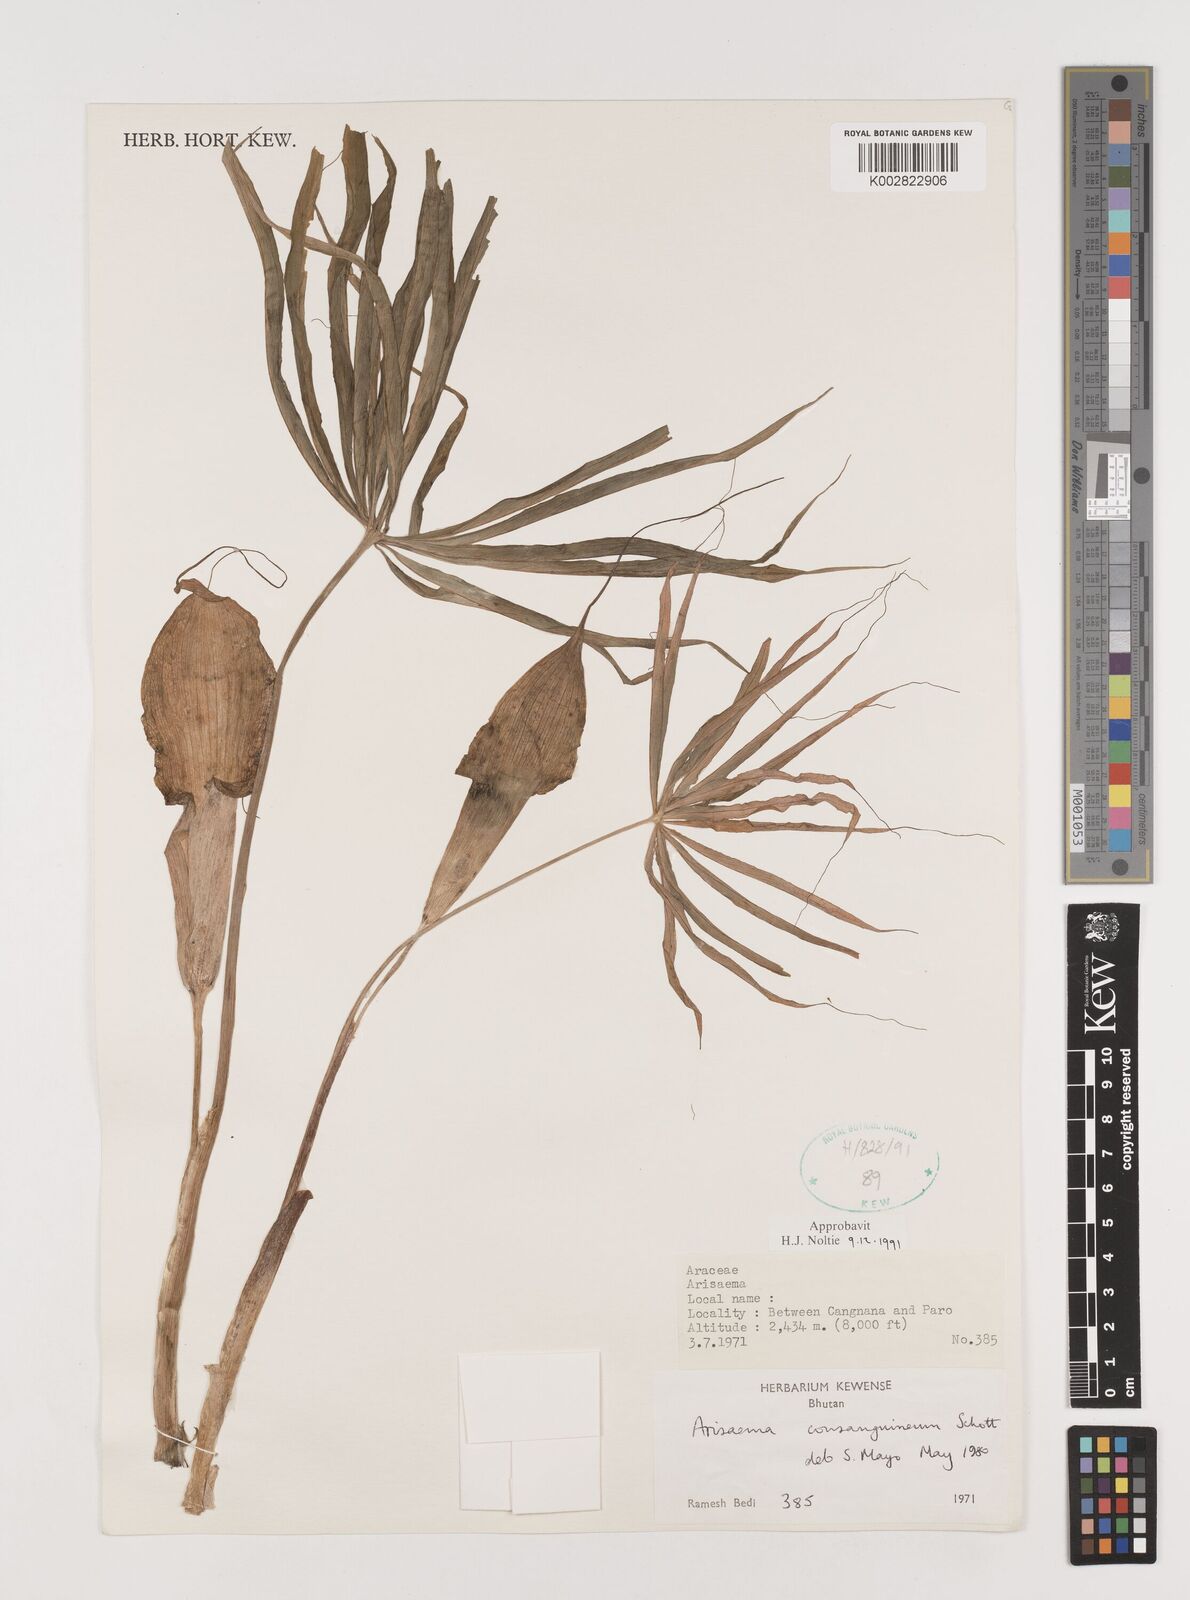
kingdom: Plantae
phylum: Tracheophyta
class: Liliopsida
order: Alismatales
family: Araceae
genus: Arisaema
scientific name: Arisaema erubescens
